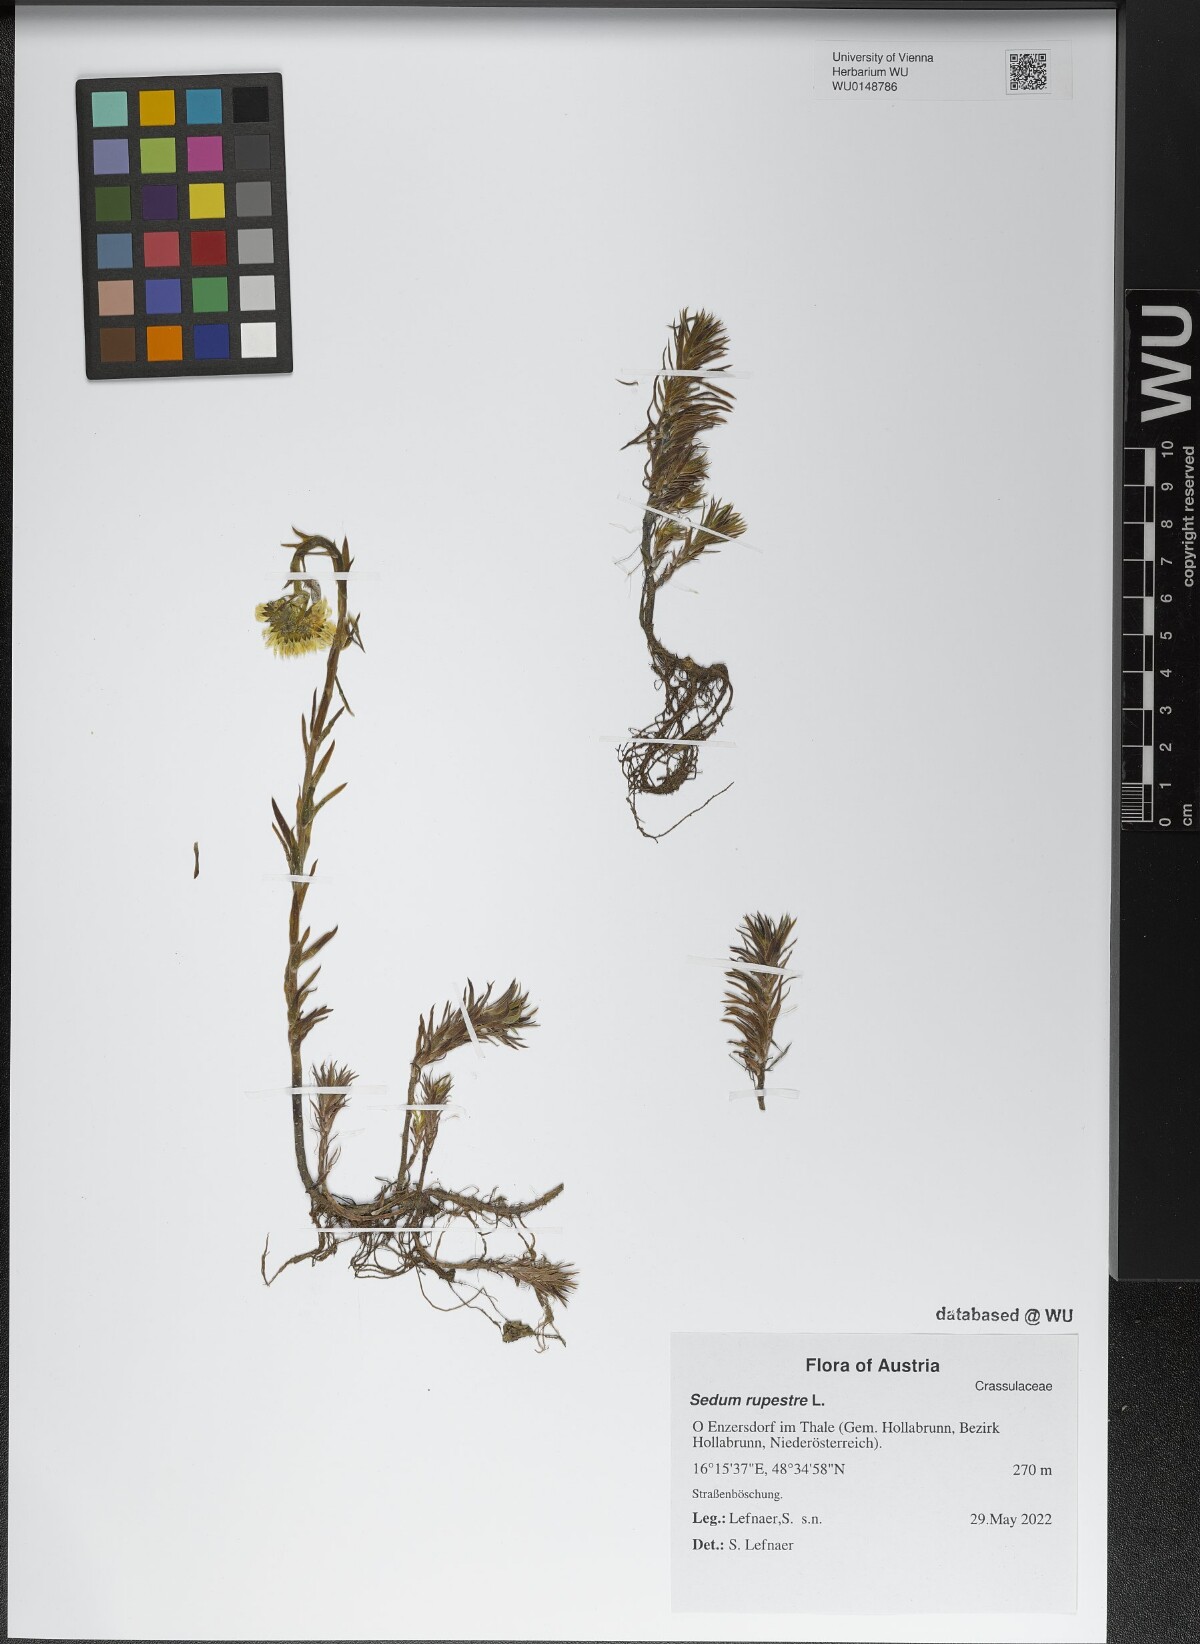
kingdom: Plantae
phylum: Tracheophyta
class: Magnoliopsida
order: Saxifragales
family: Crassulaceae
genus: Petrosedum
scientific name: Petrosedum rupestre
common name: Jenny's stonecrop
